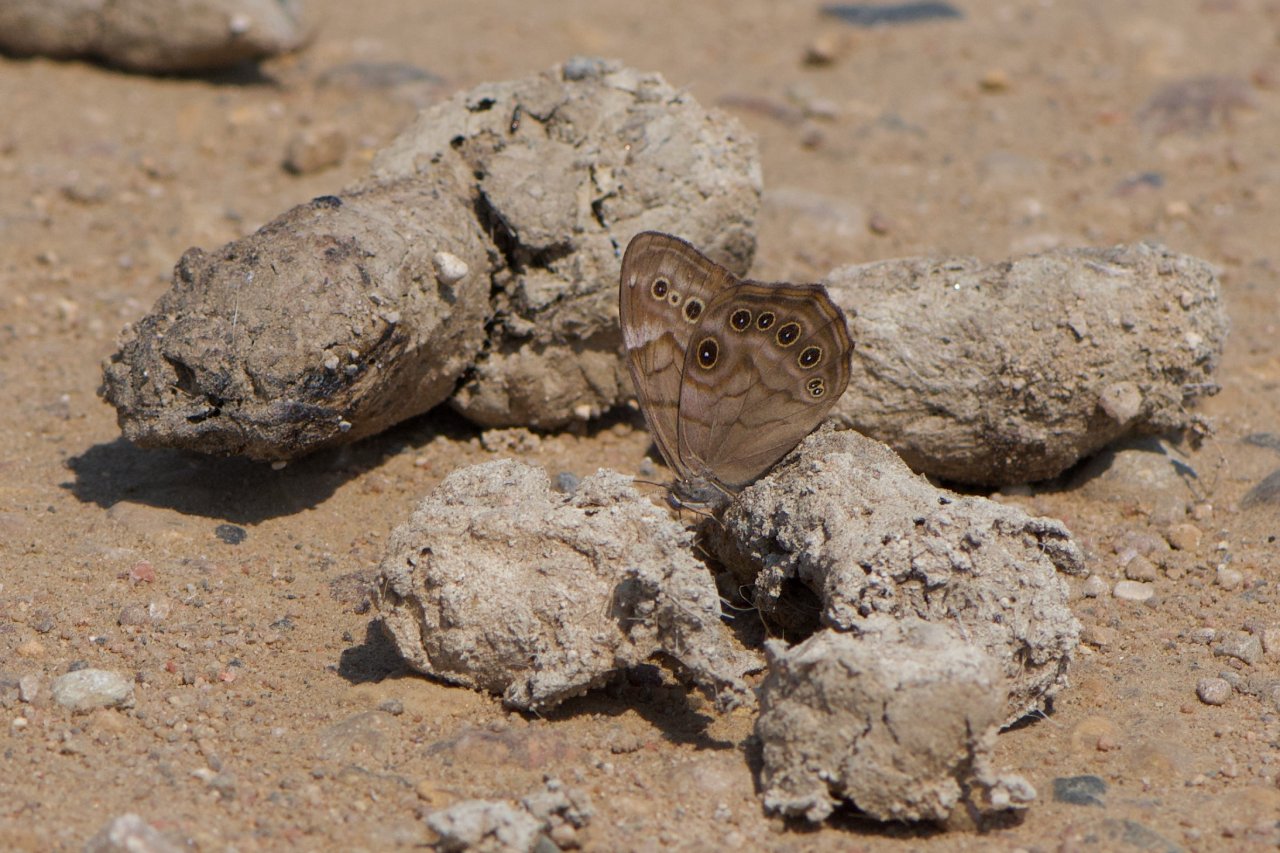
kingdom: Animalia
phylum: Arthropoda
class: Insecta
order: Lepidoptera
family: Nymphalidae
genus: Lethe
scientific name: Lethe anthedon
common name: Northern Pearly-Eye
